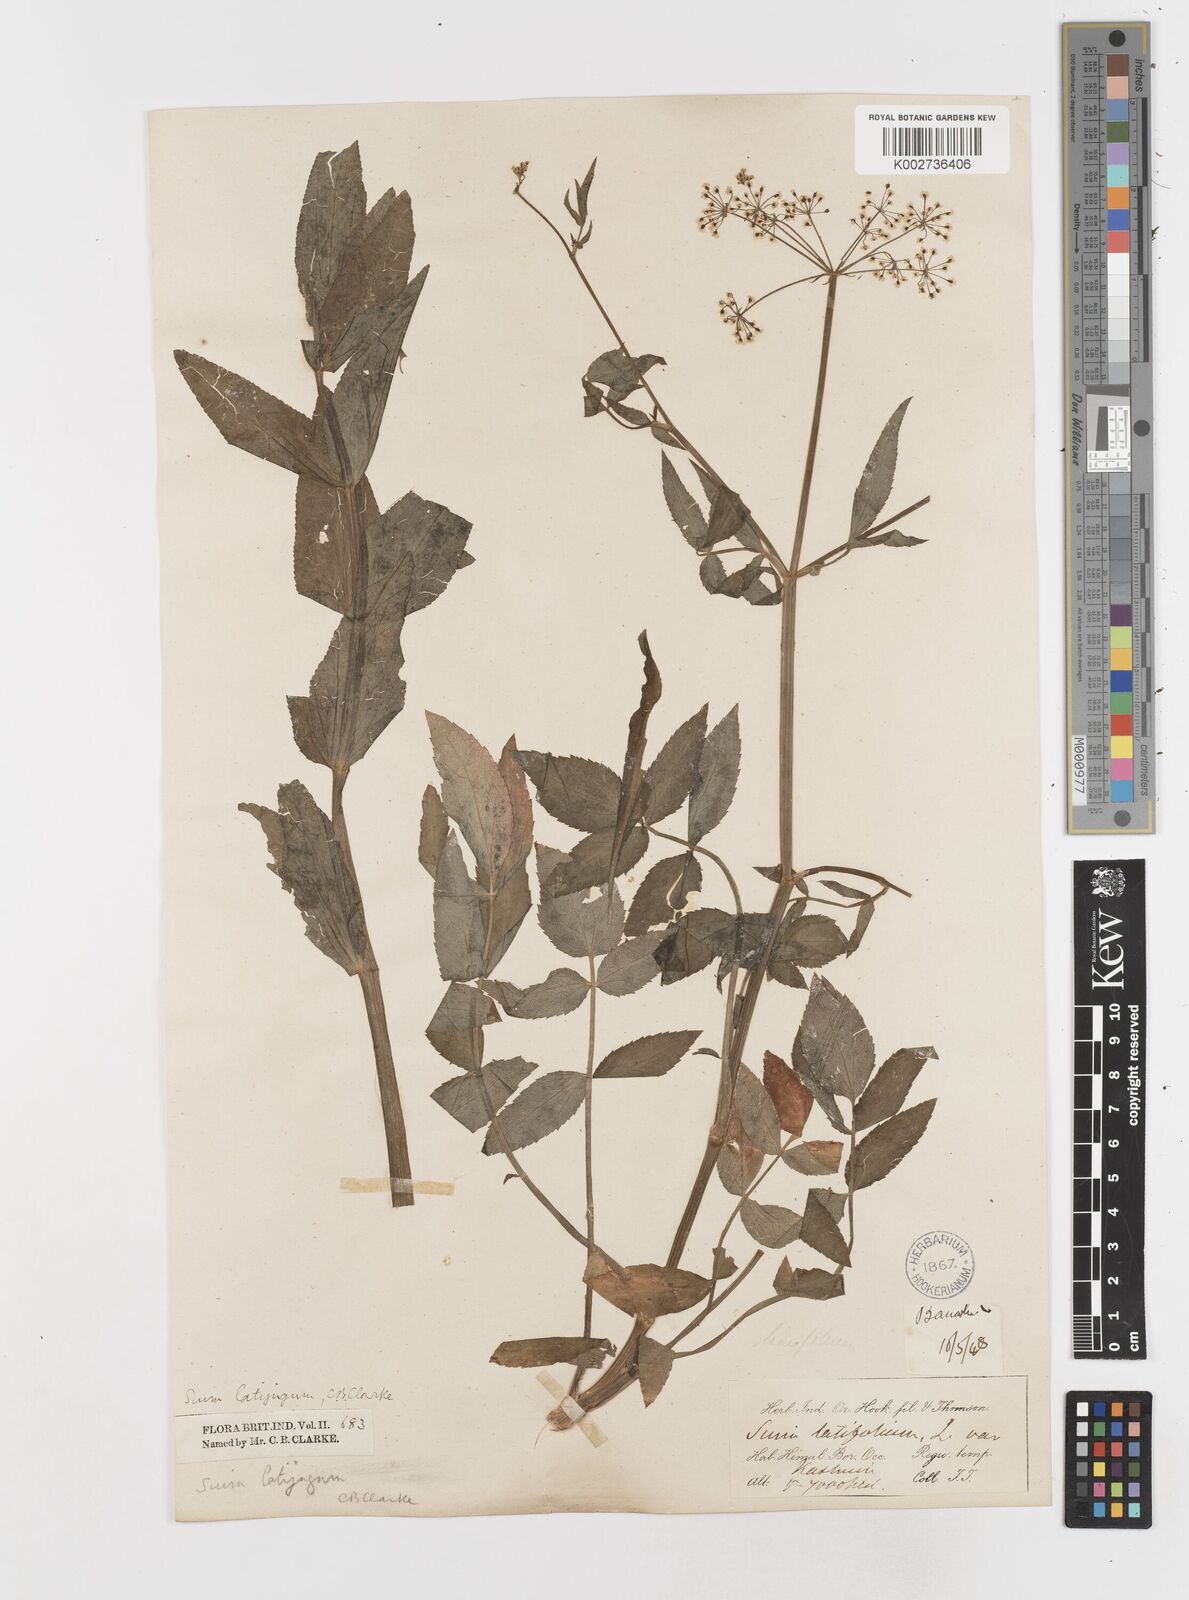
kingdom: Plantae
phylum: Tracheophyta
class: Magnoliopsida
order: Apiales
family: Apiaceae
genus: Sium
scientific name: Sium sisarum
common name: Skirret
